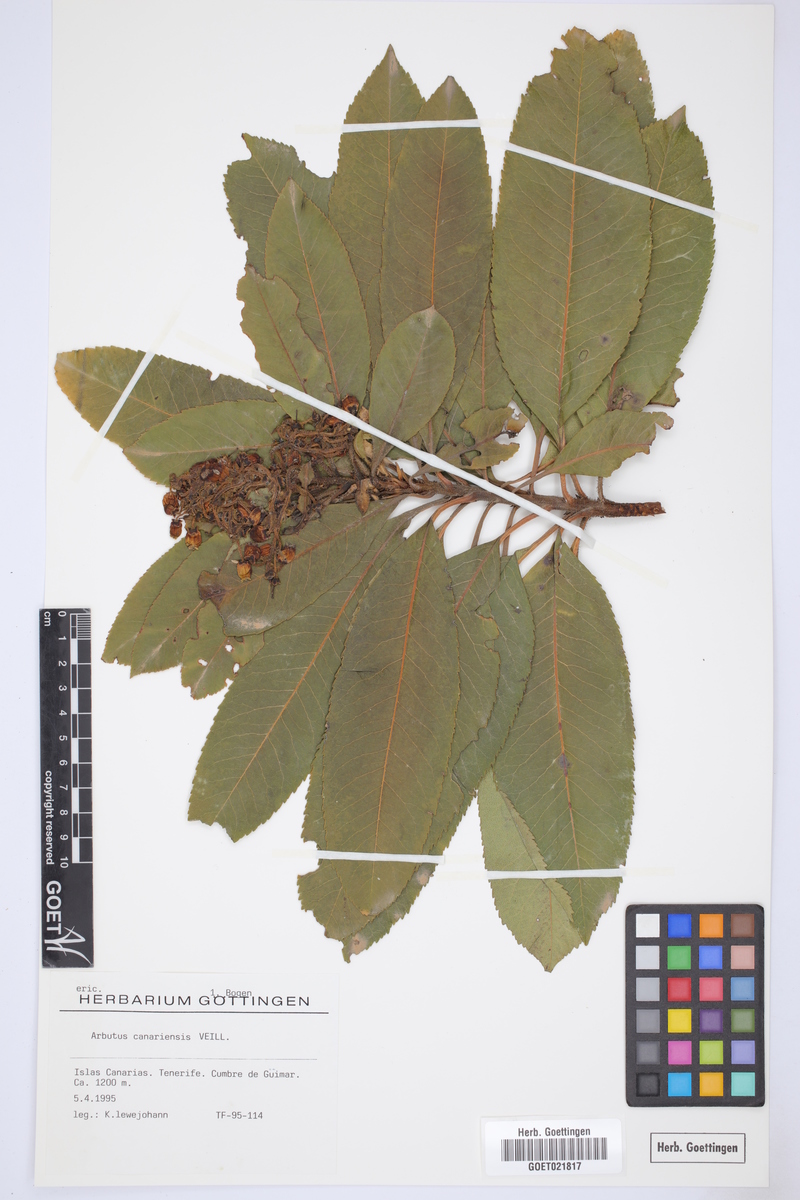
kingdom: Plantae
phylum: Tracheophyta
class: Magnoliopsida
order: Ericales
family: Ericaceae
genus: Arbutus
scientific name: Arbutus canariensis
